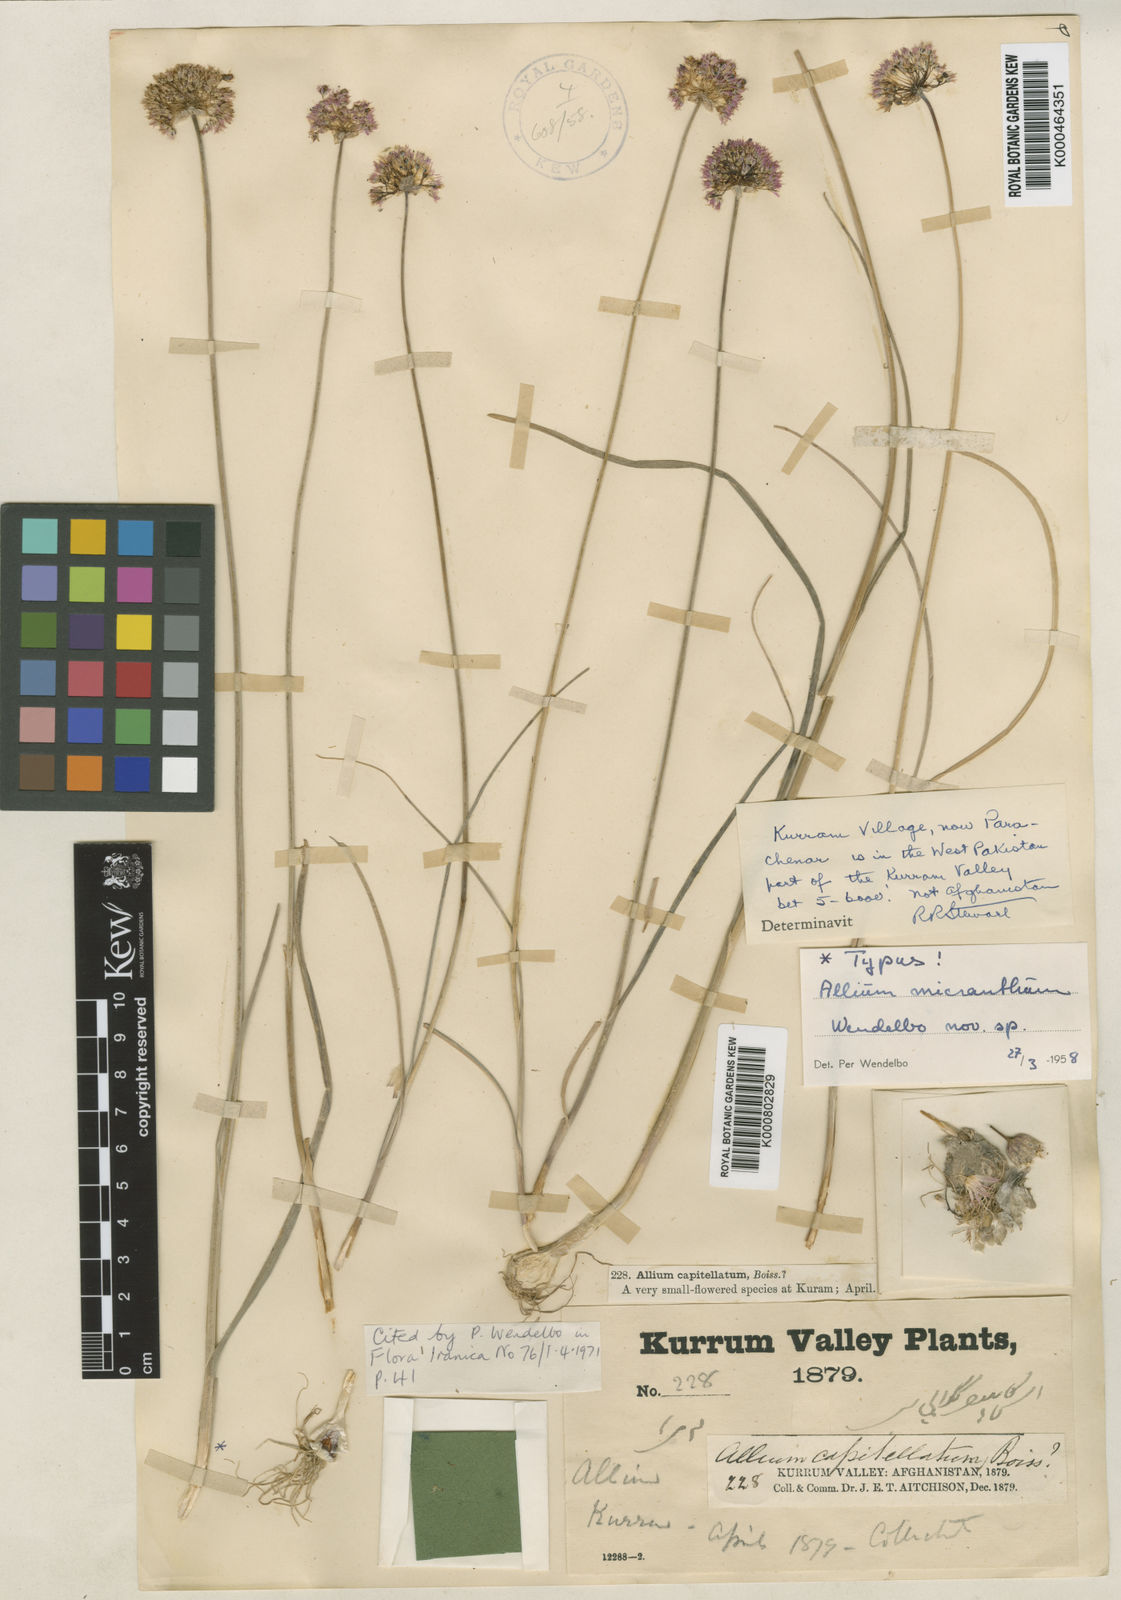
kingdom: Plantae
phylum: Tracheophyta
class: Liliopsida
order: Asparagales
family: Amaryllidaceae
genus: Allium
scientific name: Allium micranthum
